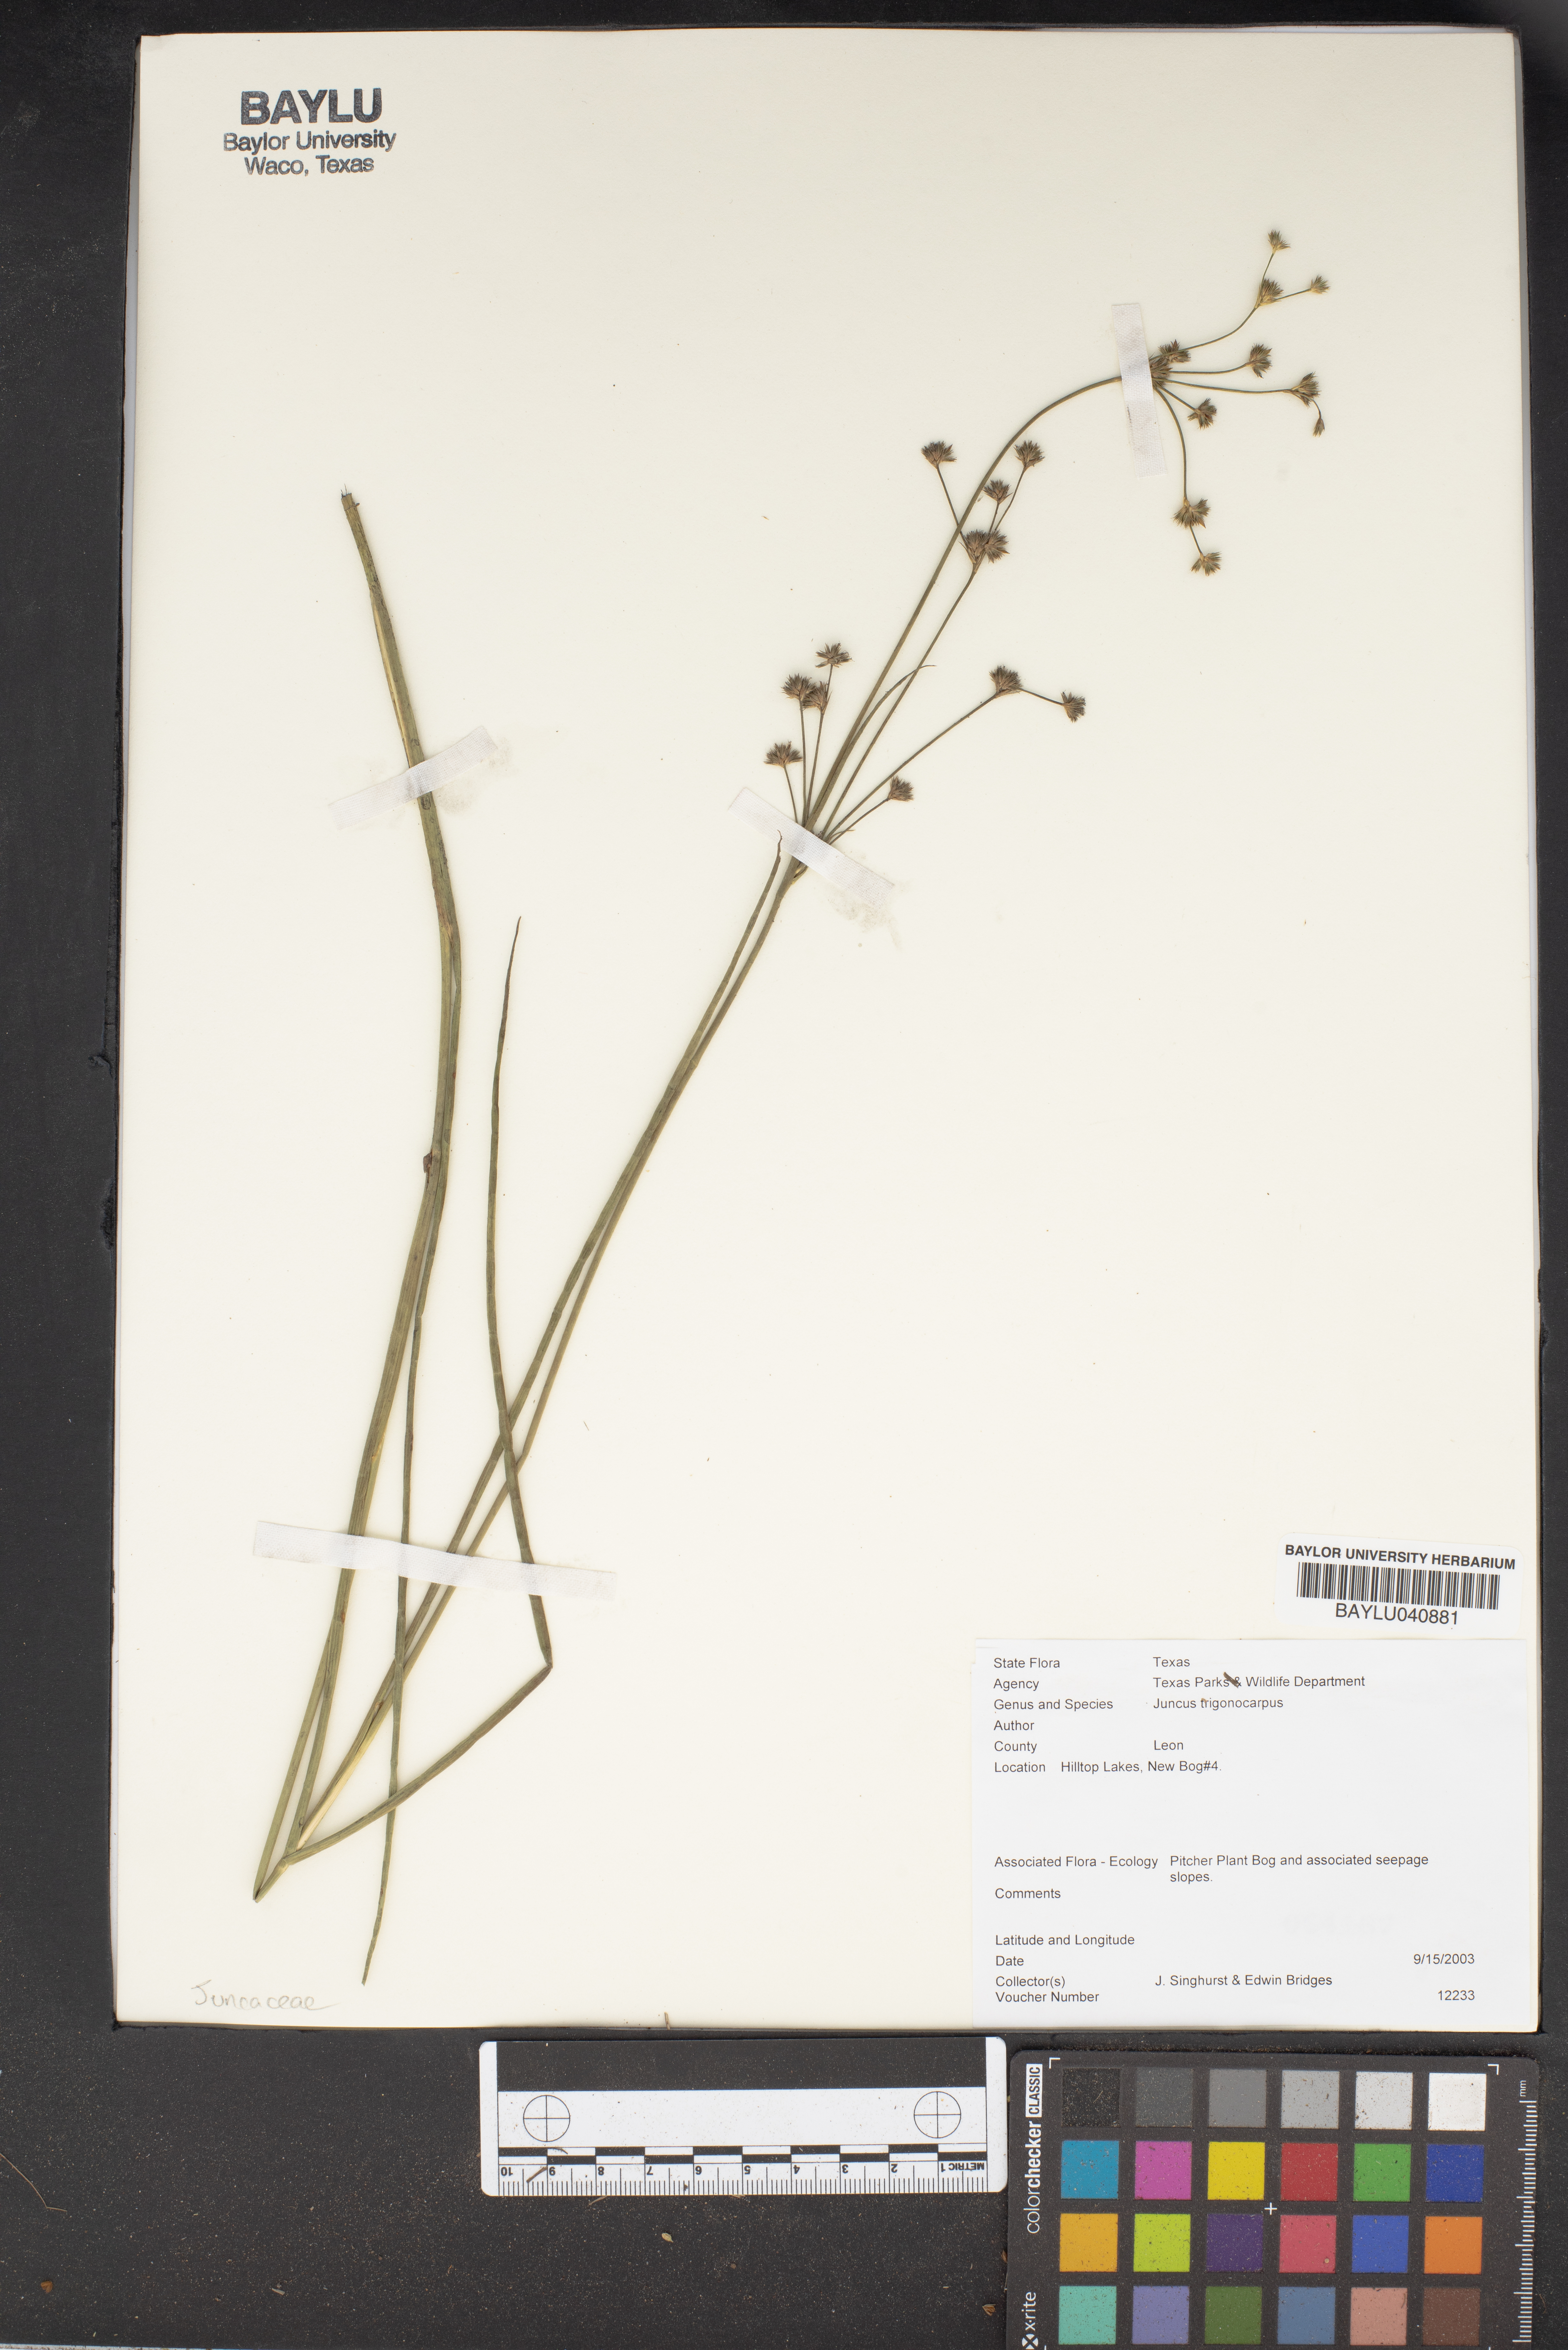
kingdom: Plantae
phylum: Tracheophyta
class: Liliopsida
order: Poales
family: Juncaceae
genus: Juncus
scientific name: Juncus trigonocarpus
